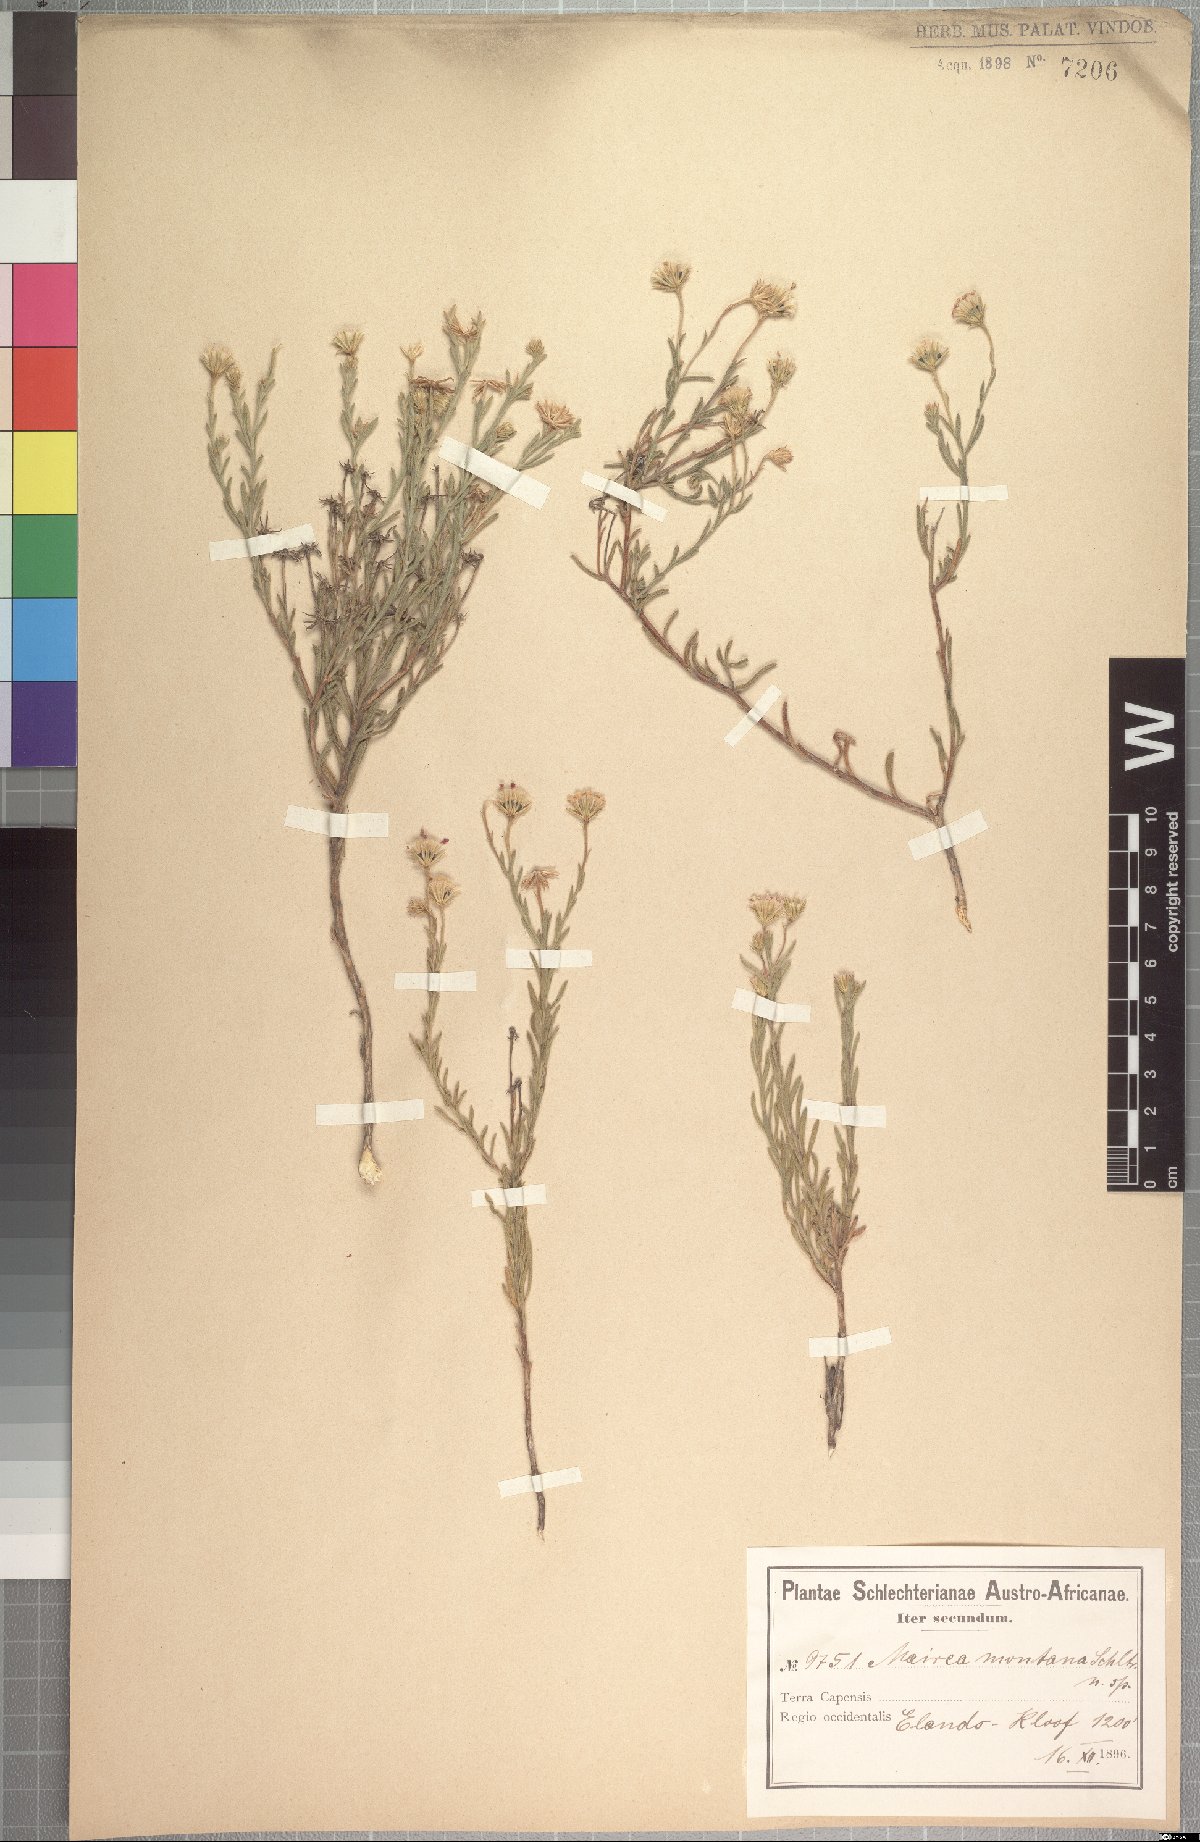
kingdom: Plantae
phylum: Tracheophyta
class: Magnoliopsida
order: Asterales
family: Asteraceae
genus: Zyrphelis
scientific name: Zyrphelis montana
